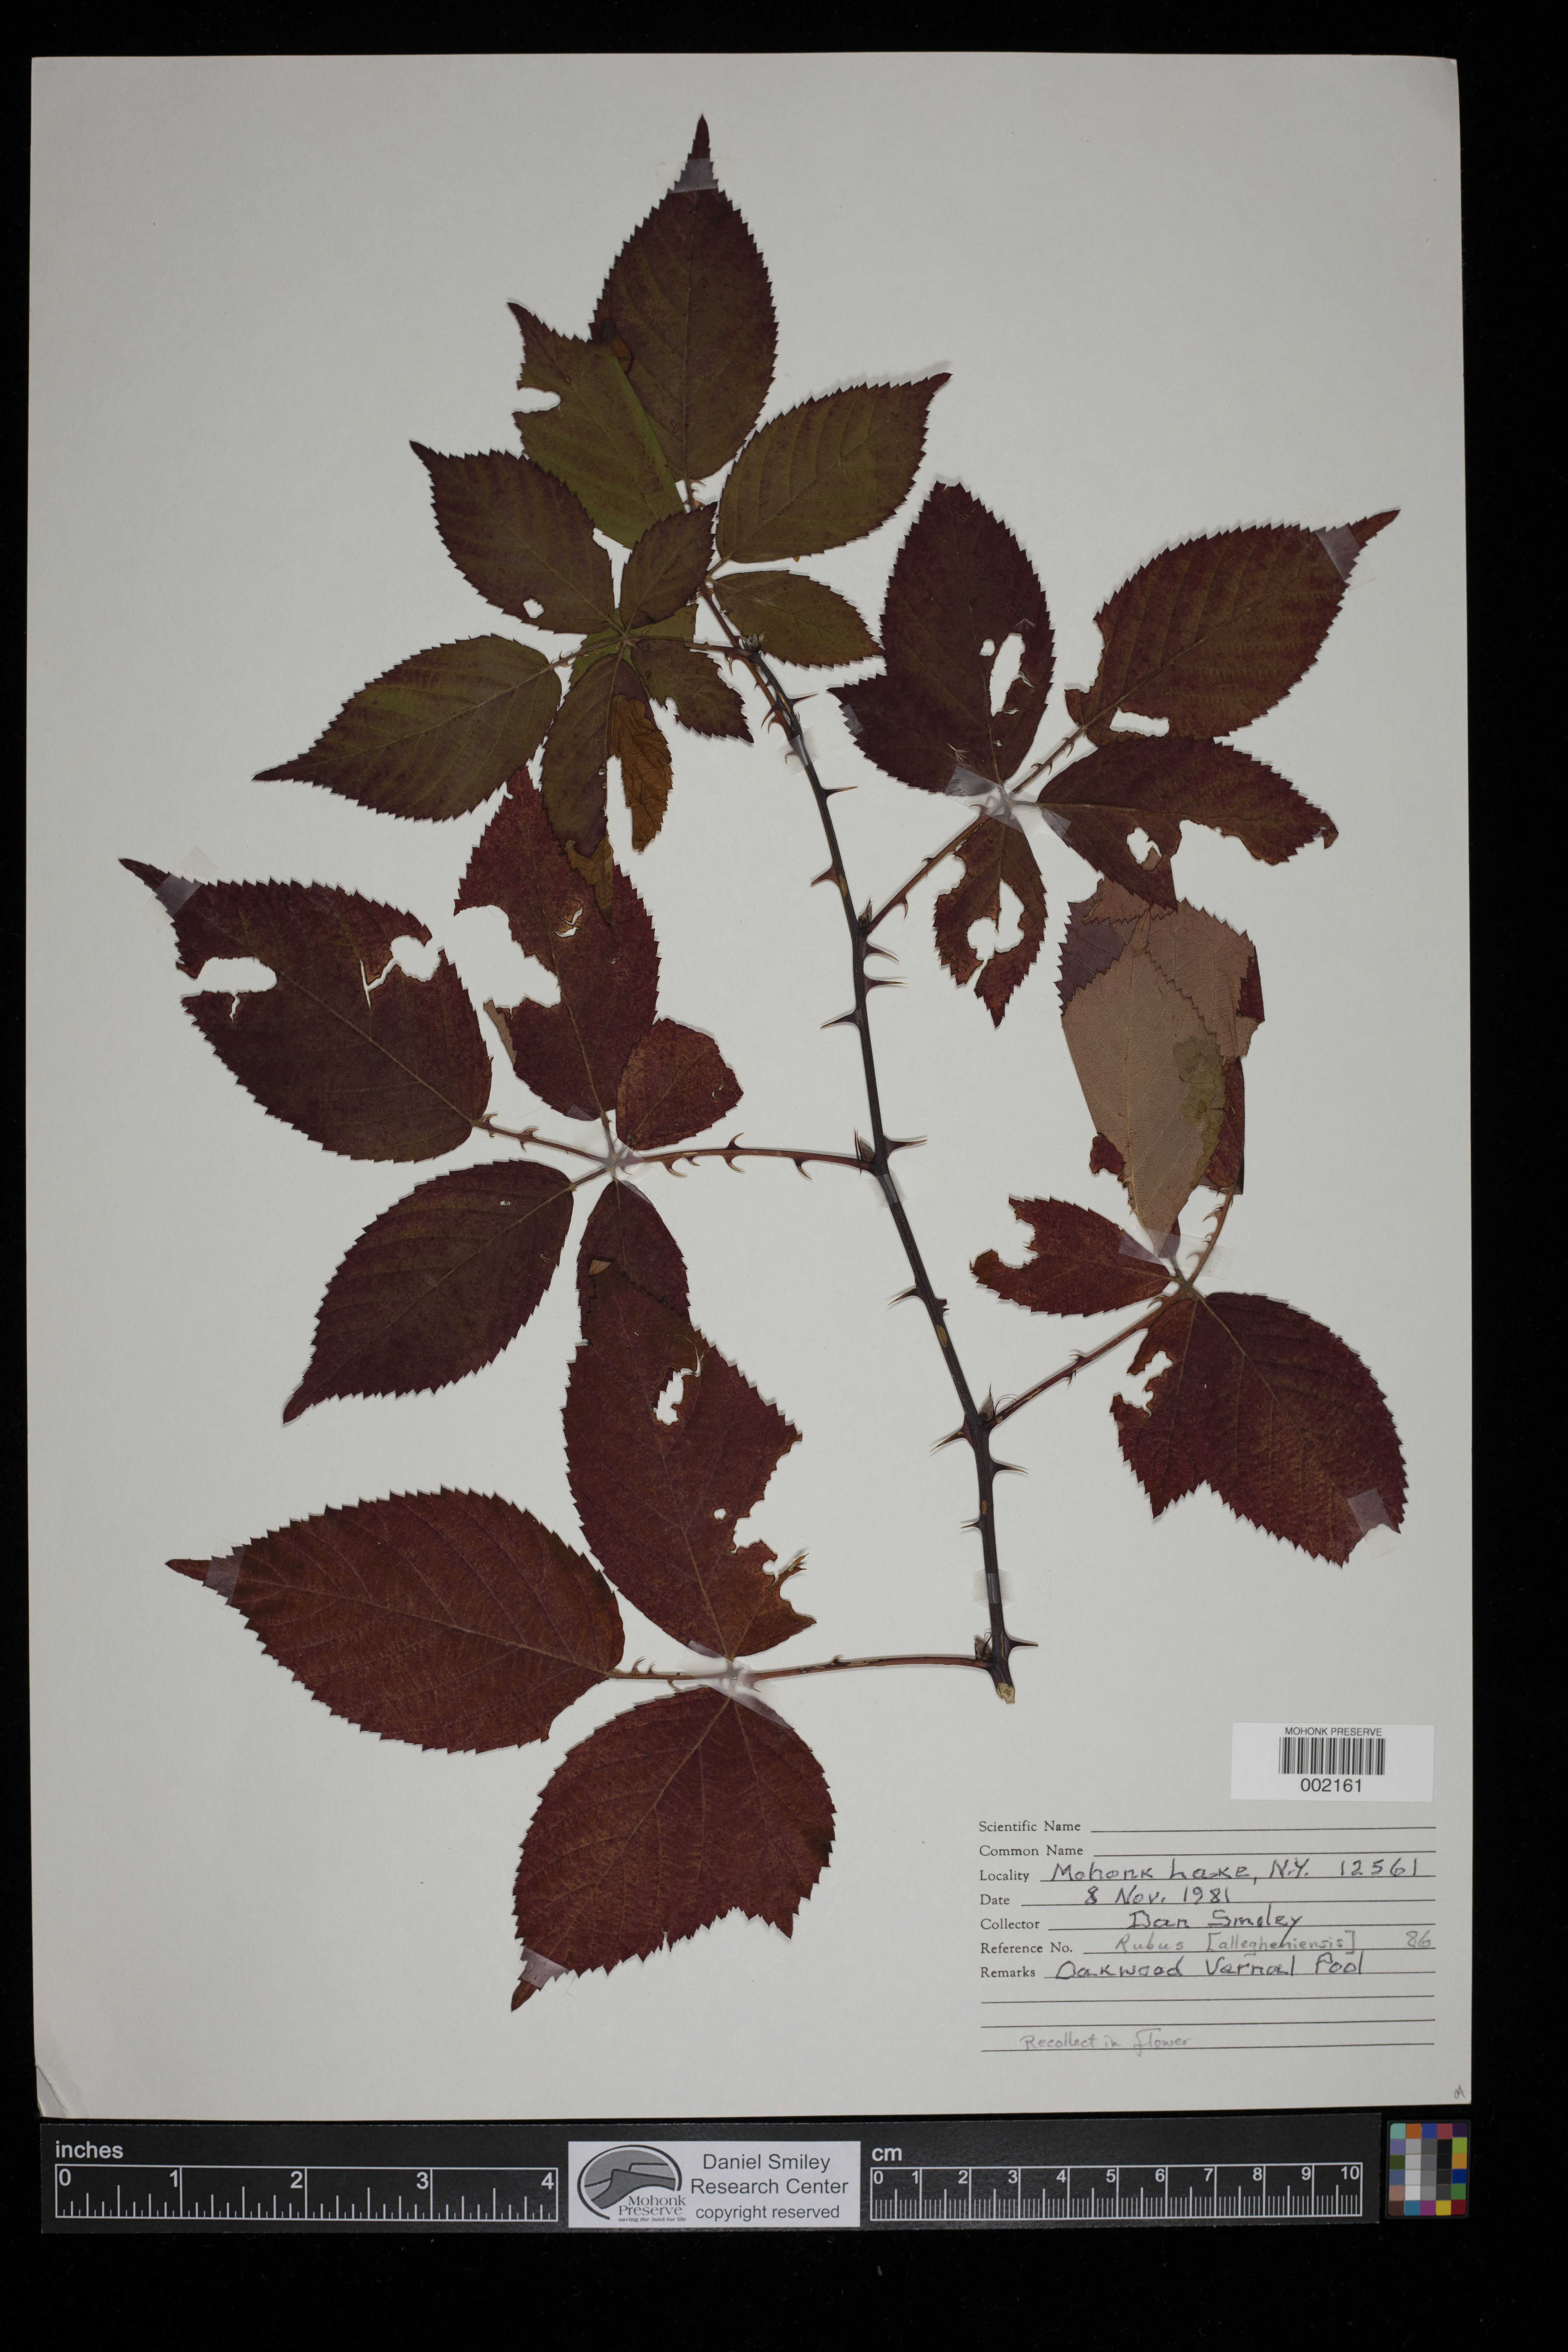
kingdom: Plantae
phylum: Tracheophyta
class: Magnoliopsida
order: Rosales
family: Rosaceae
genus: Rubus
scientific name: Rubus allegheniensis
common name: Allegheny blackberry
